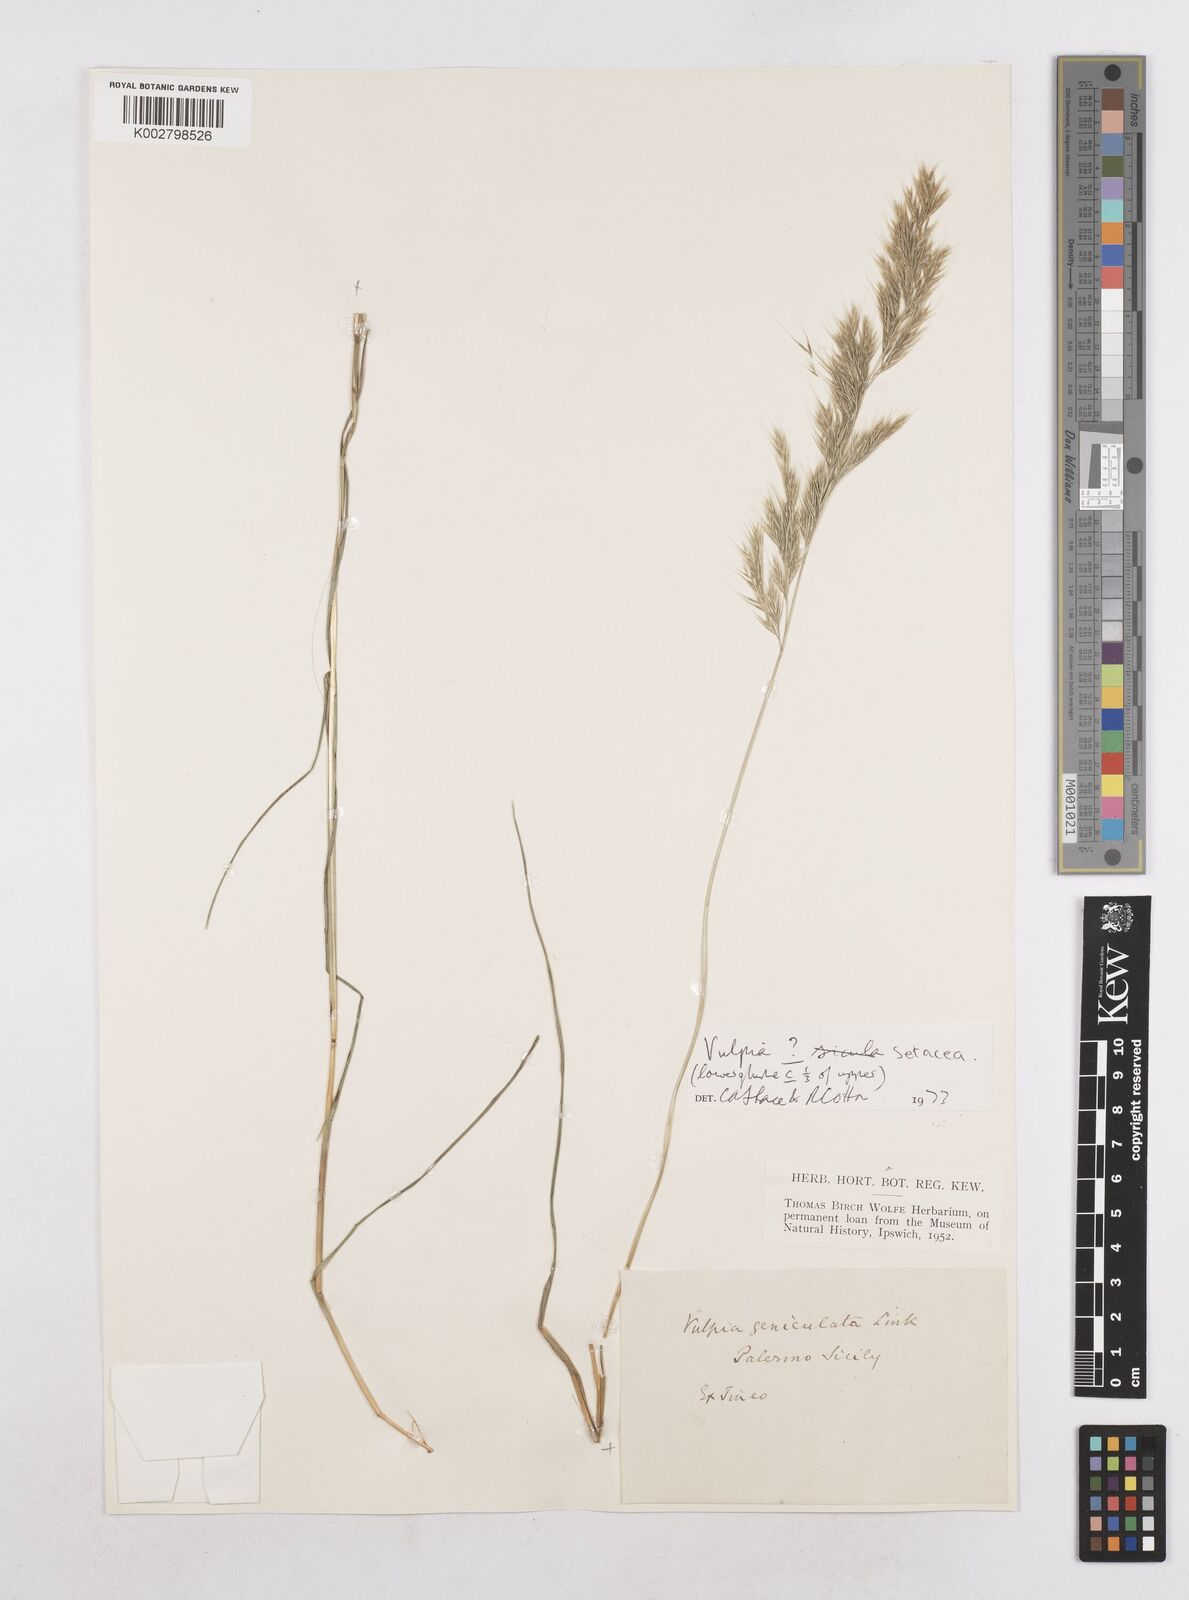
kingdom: Plantae
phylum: Tracheophyta
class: Liliopsida
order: Poales
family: Poaceae
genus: Festuca
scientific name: Festuca sicula
